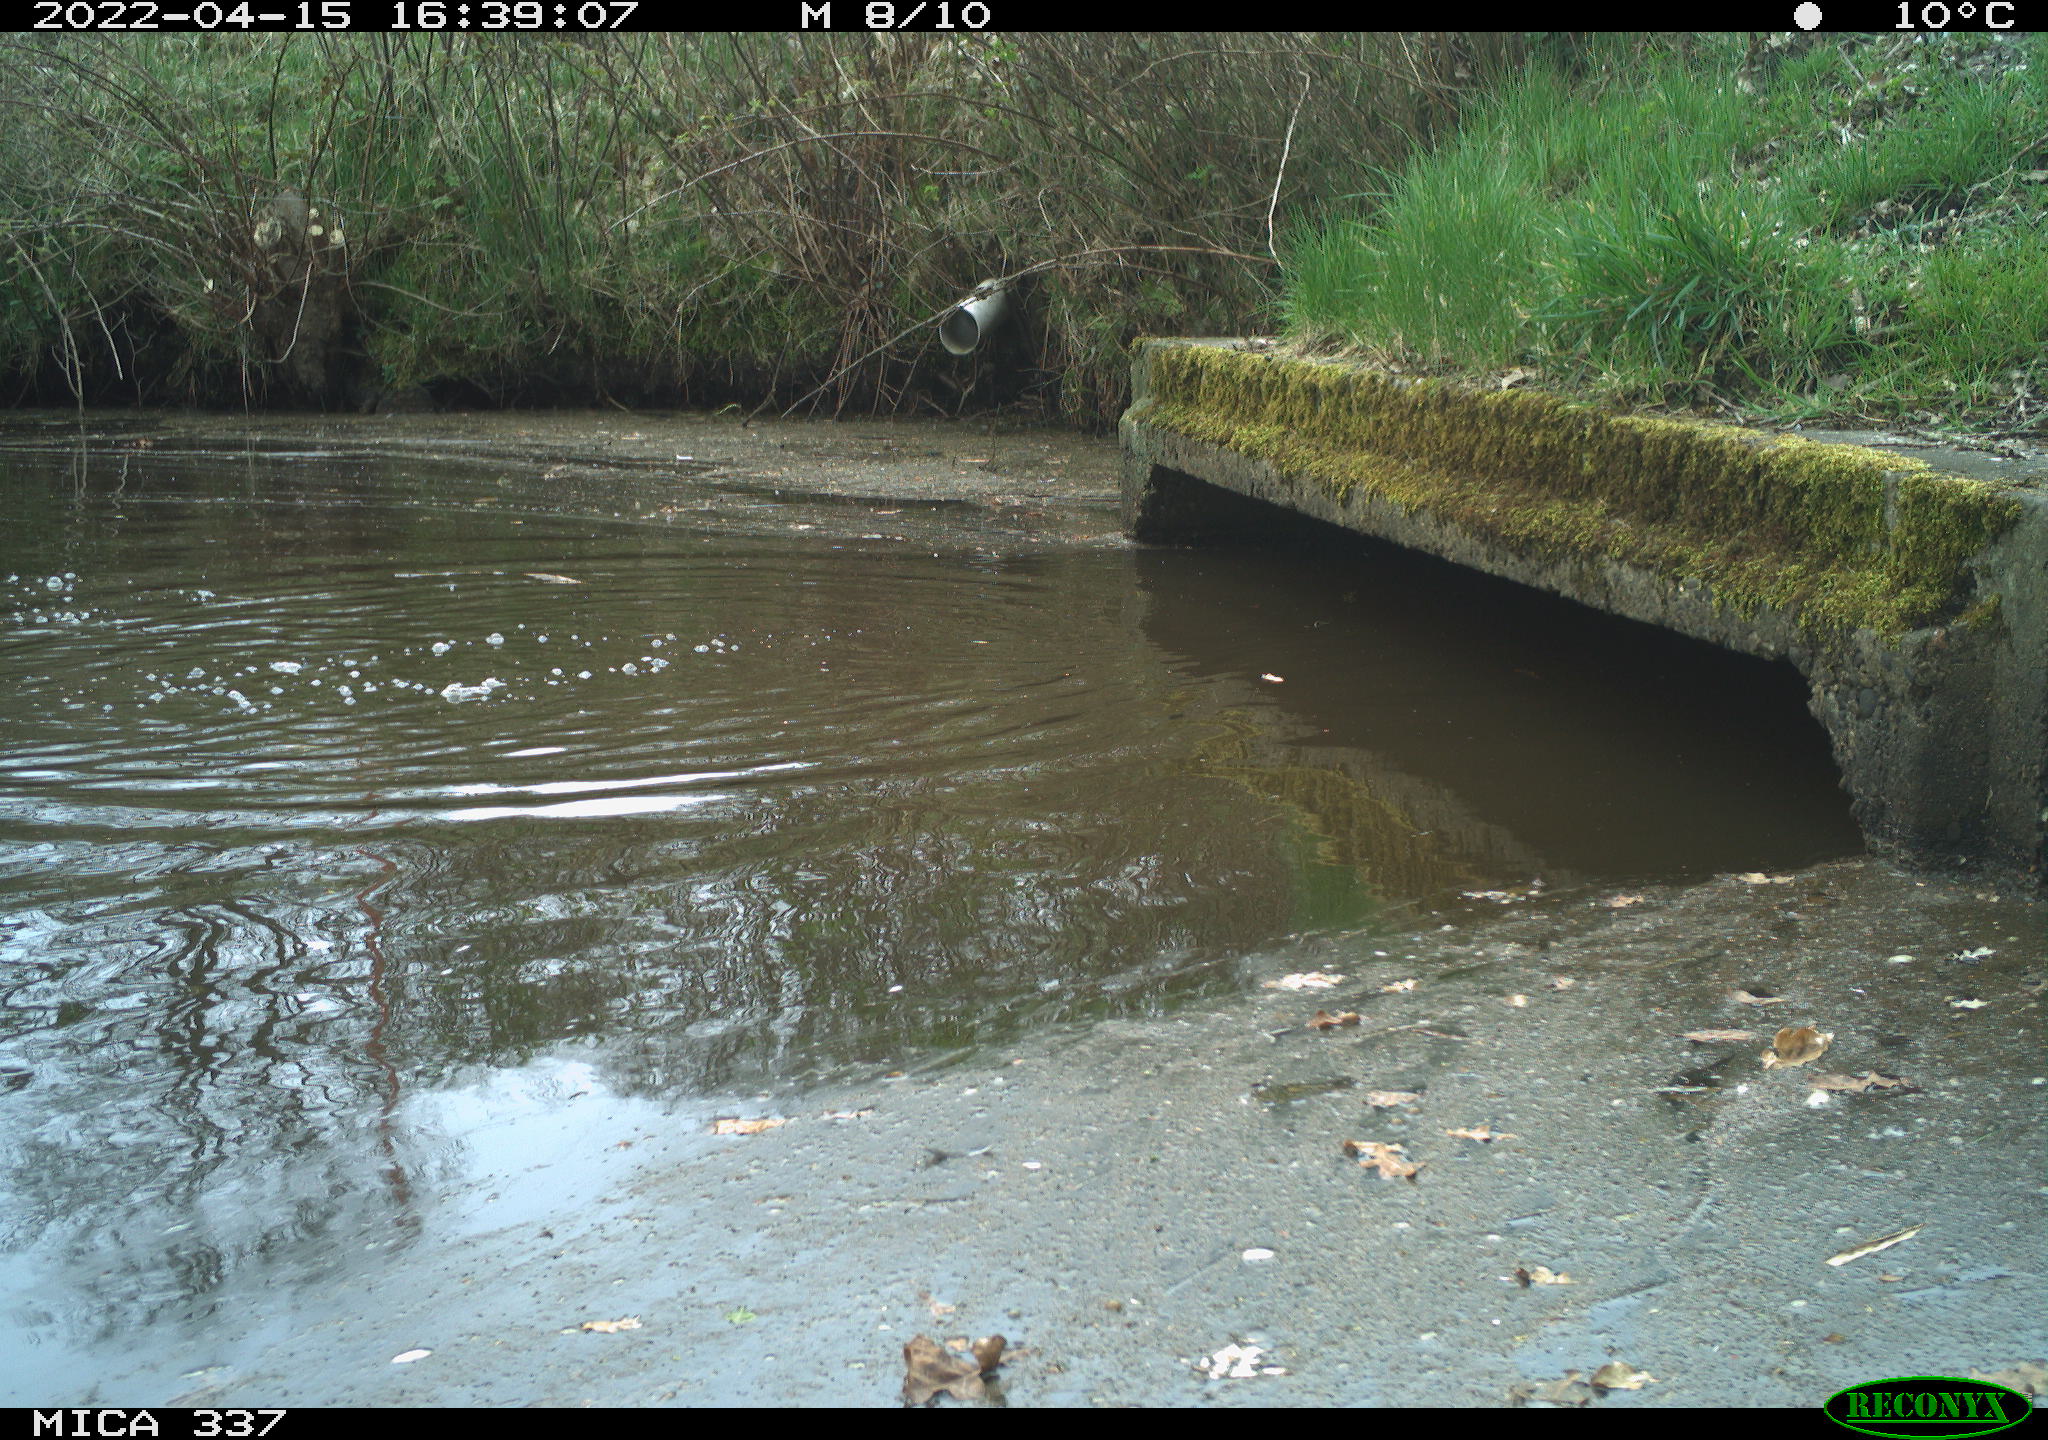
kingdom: Animalia
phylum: Chordata
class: Aves
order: Anseriformes
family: Anatidae
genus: Anas
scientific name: Anas platyrhynchos
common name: Mallard
